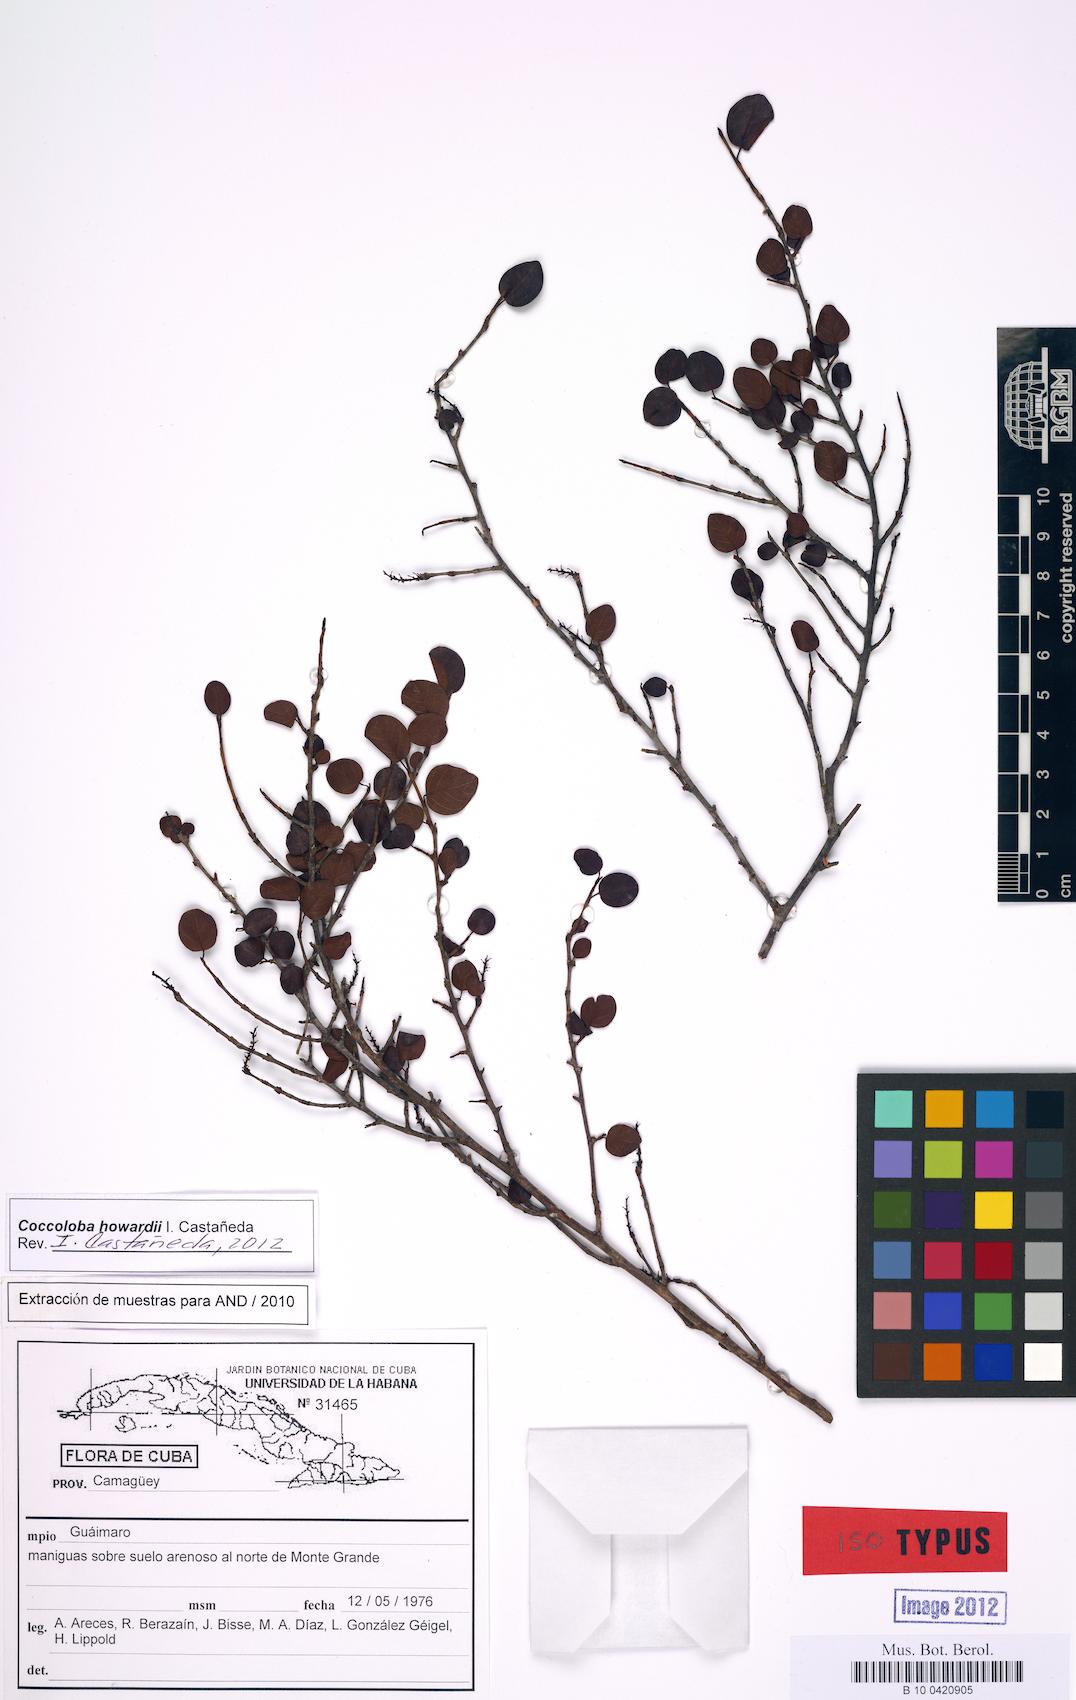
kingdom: Plantae
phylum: Tracheophyta
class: Magnoliopsida
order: Caryophyllales
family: Polygonaceae
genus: Coccoloba
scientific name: Coccoloba howardii
